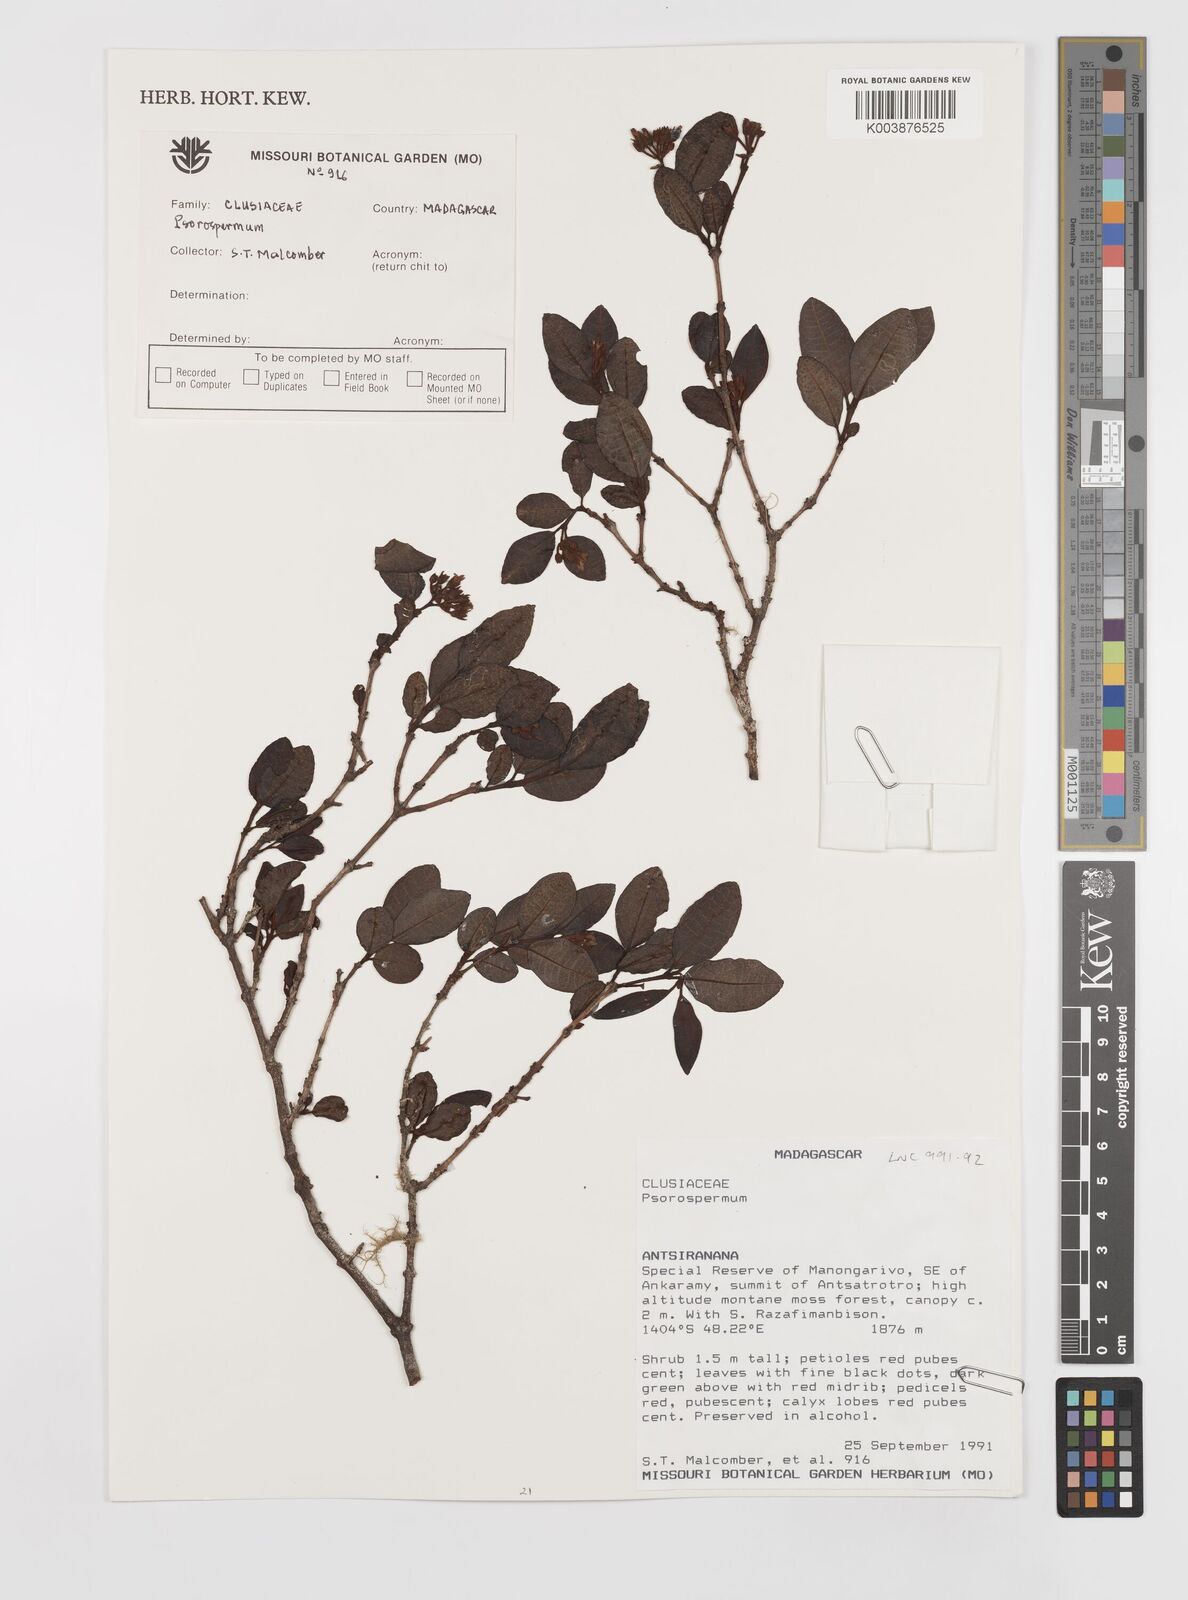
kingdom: Plantae
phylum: Tracheophyta
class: Magnoliopsida
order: Malpighiales
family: Hypericaceae
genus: Psorospermum
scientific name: Psorospermum
